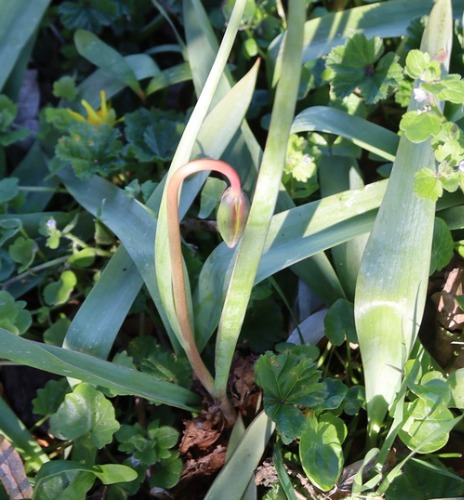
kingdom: Plantae
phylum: Tracheophyta
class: Liliopsida
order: Liliales
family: Liliaceae
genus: Tulipa
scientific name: Tulipa sylvestris
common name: Vild tulipan
